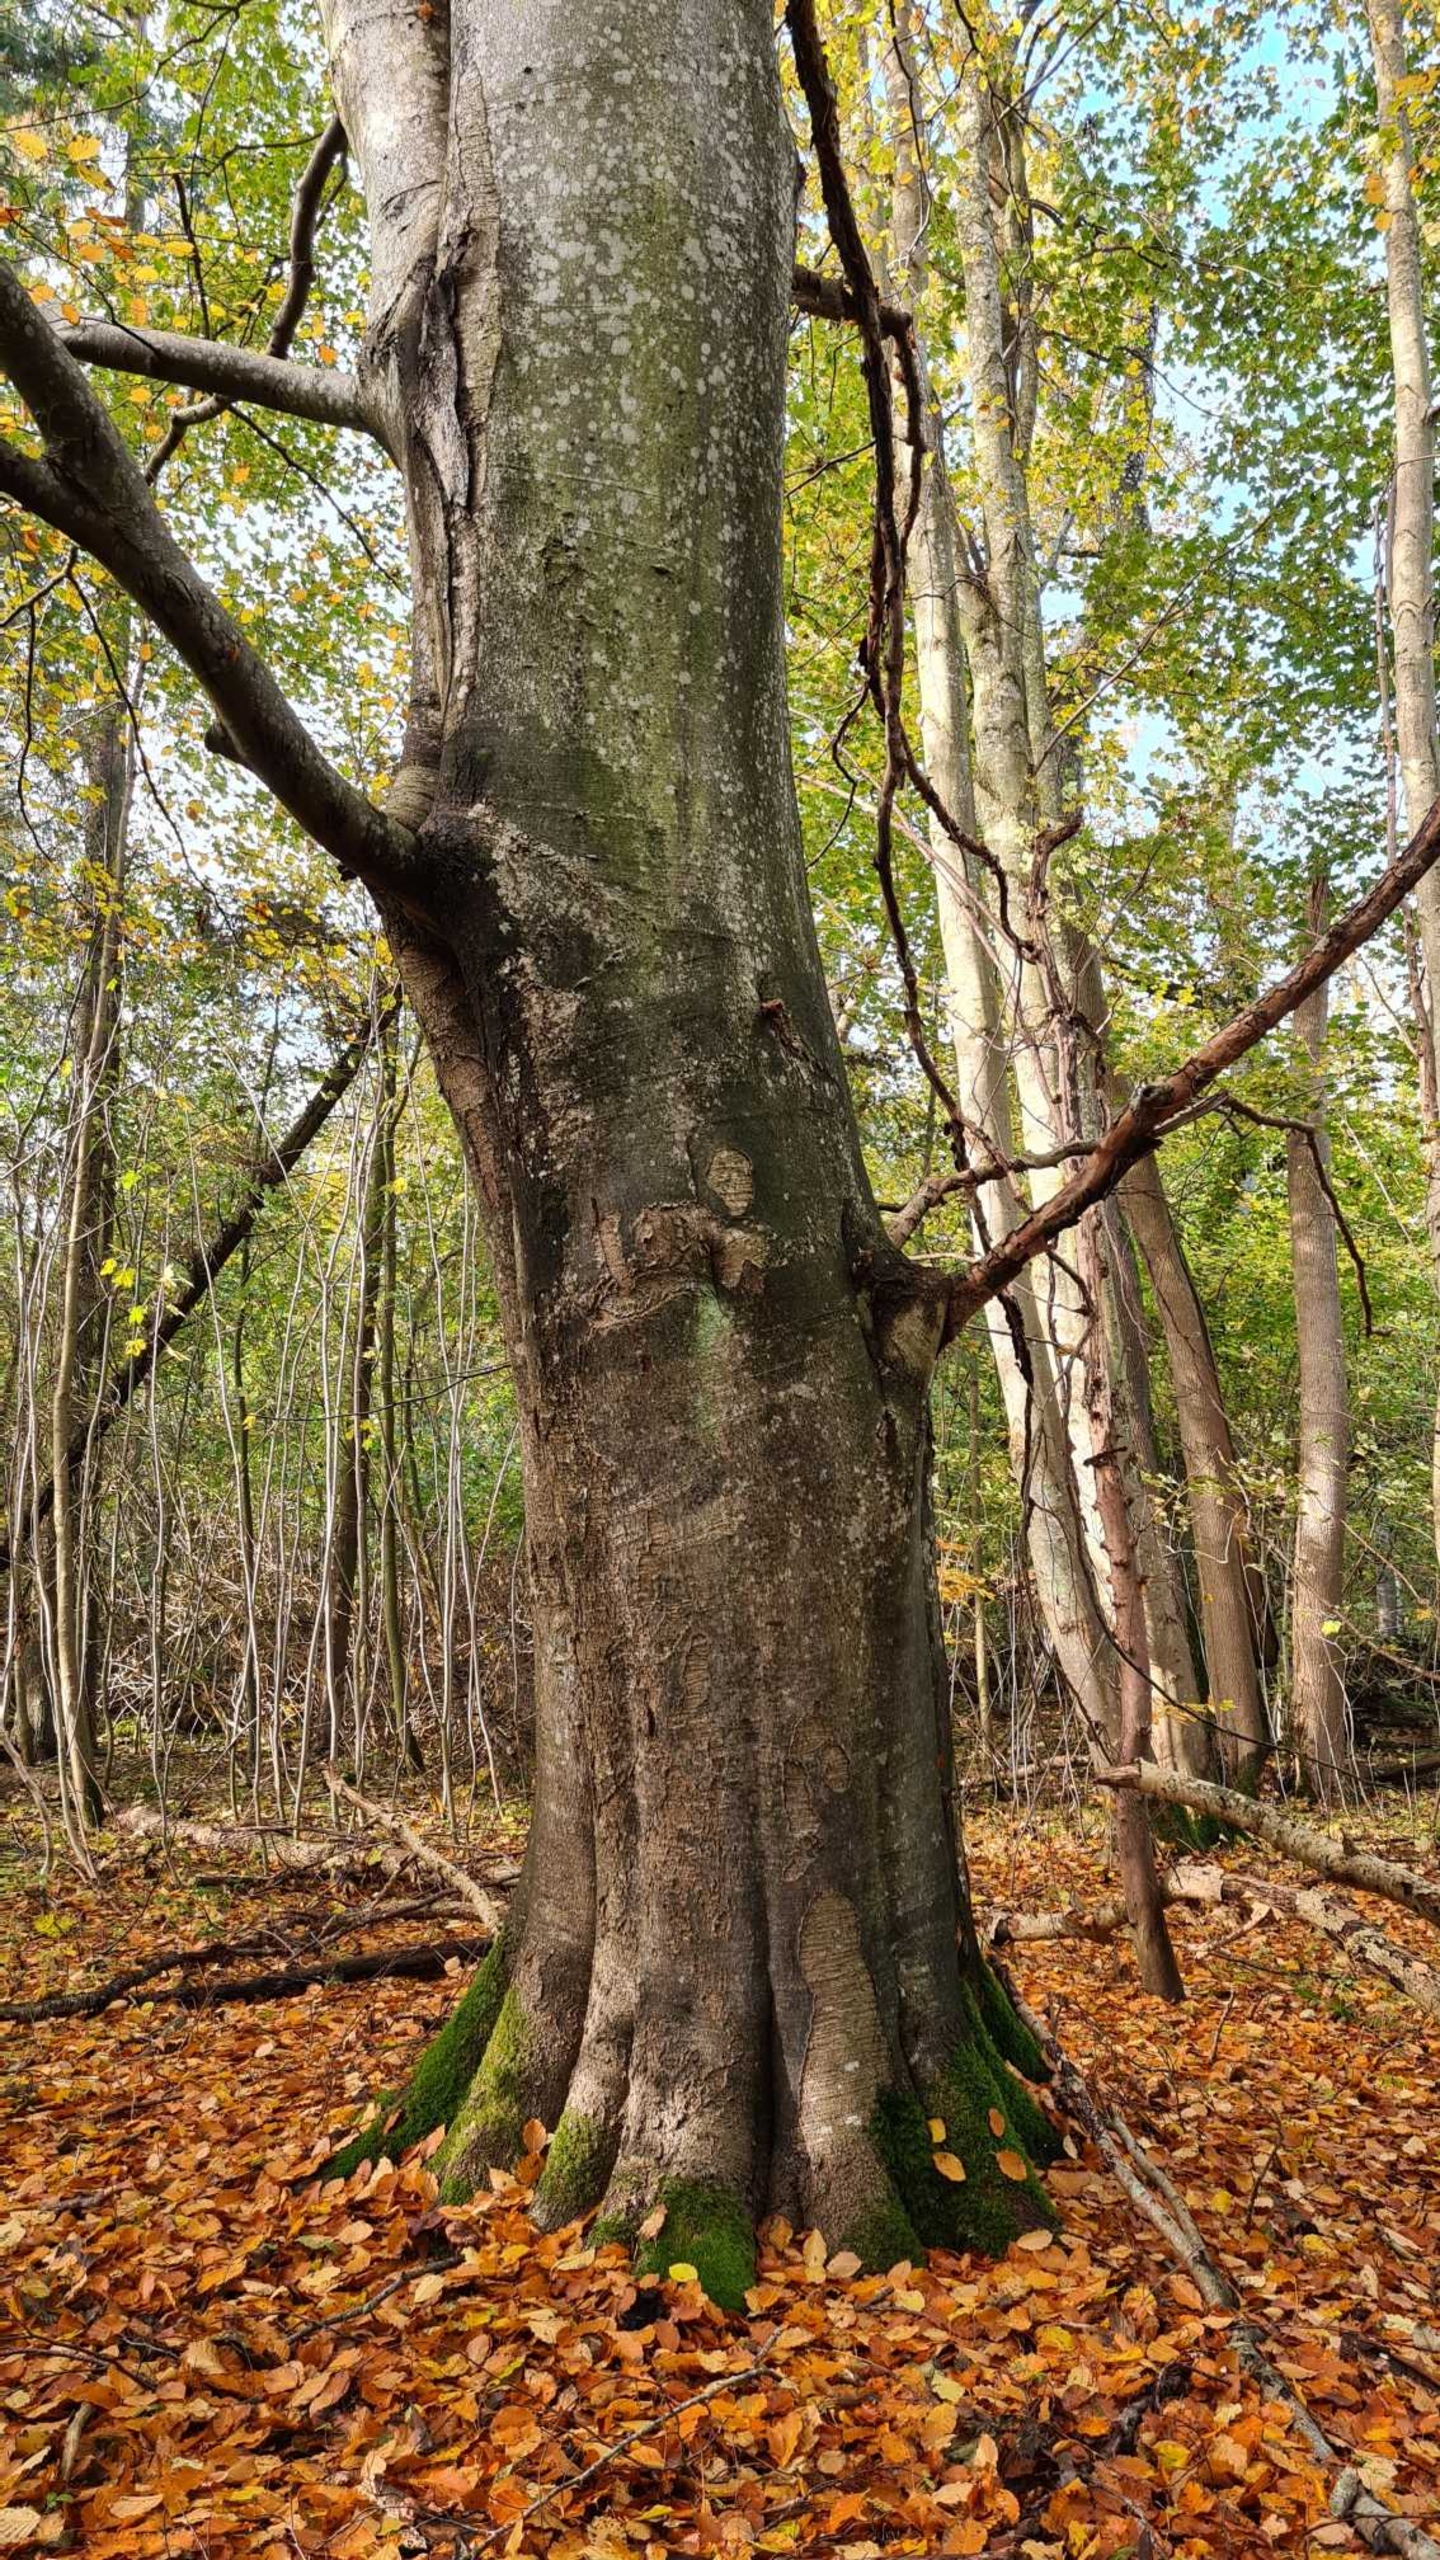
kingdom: Plantae
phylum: Tracheophyta
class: Magnoliopsida
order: Fagales
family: Fagaceae
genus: Fagus
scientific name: Fagus sylvatica
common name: Bøg
